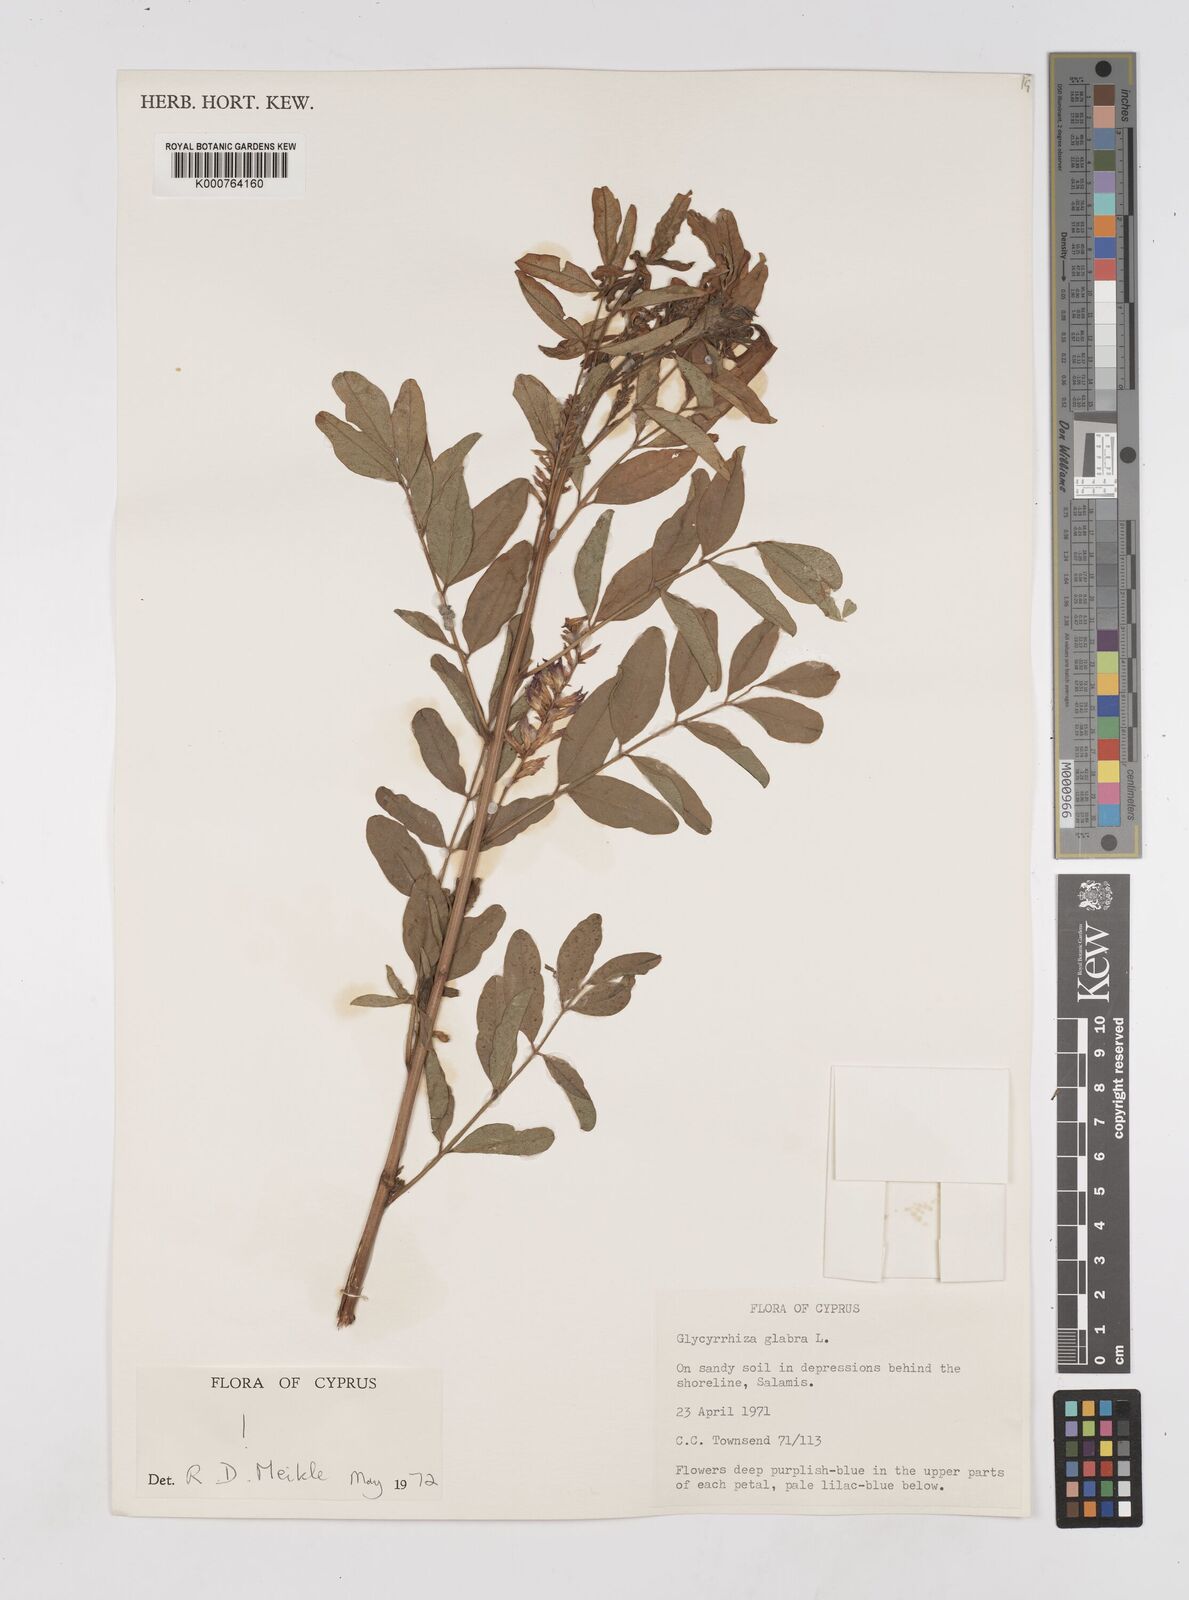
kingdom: Plantae
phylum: Tracheophyta
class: Magnoliopsida
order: Fabales
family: Fabaceae
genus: Glycyrrhiza
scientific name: Glycyrrhiza glabra
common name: Liquorice
